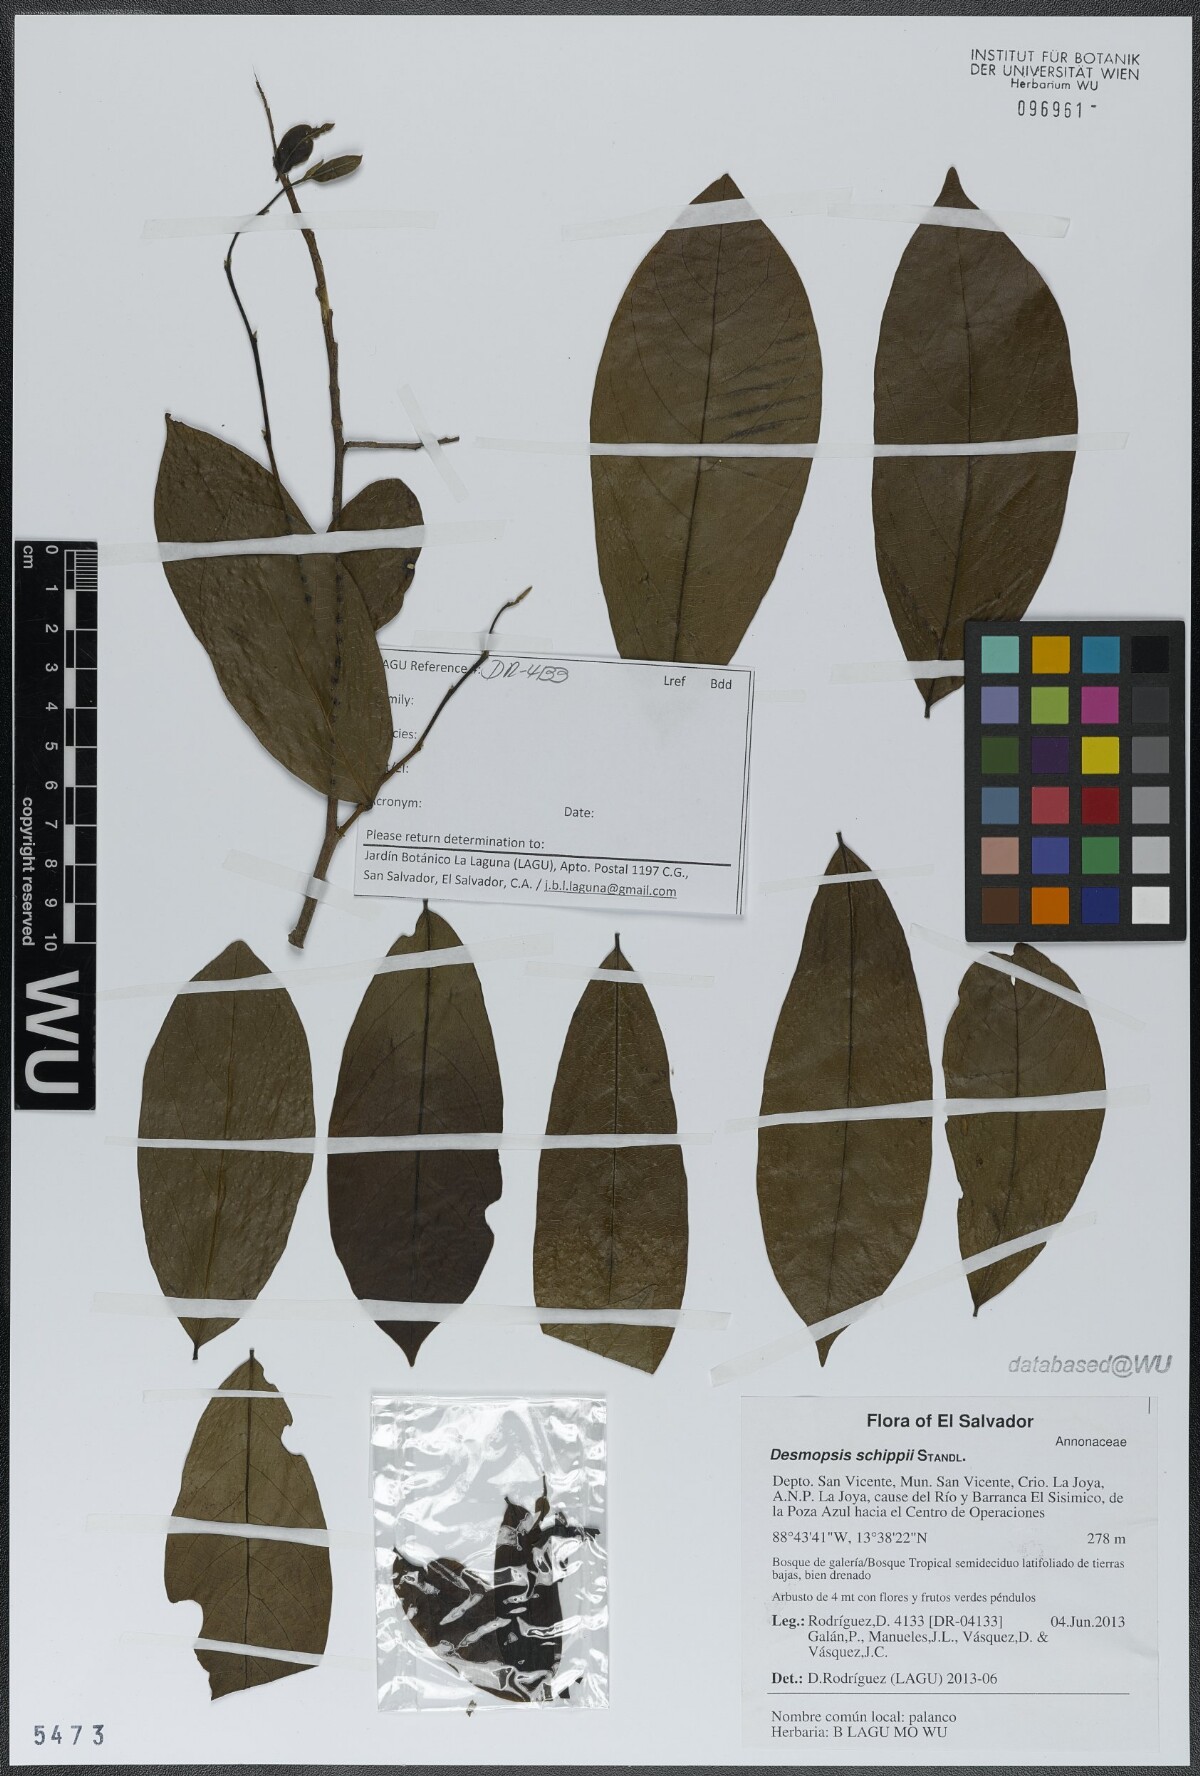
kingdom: Plantae
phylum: Tracheophyta
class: Magnoliopsida
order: Magnoliales
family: Annonaceae
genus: Desmopsis
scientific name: Desmopsis schippii
